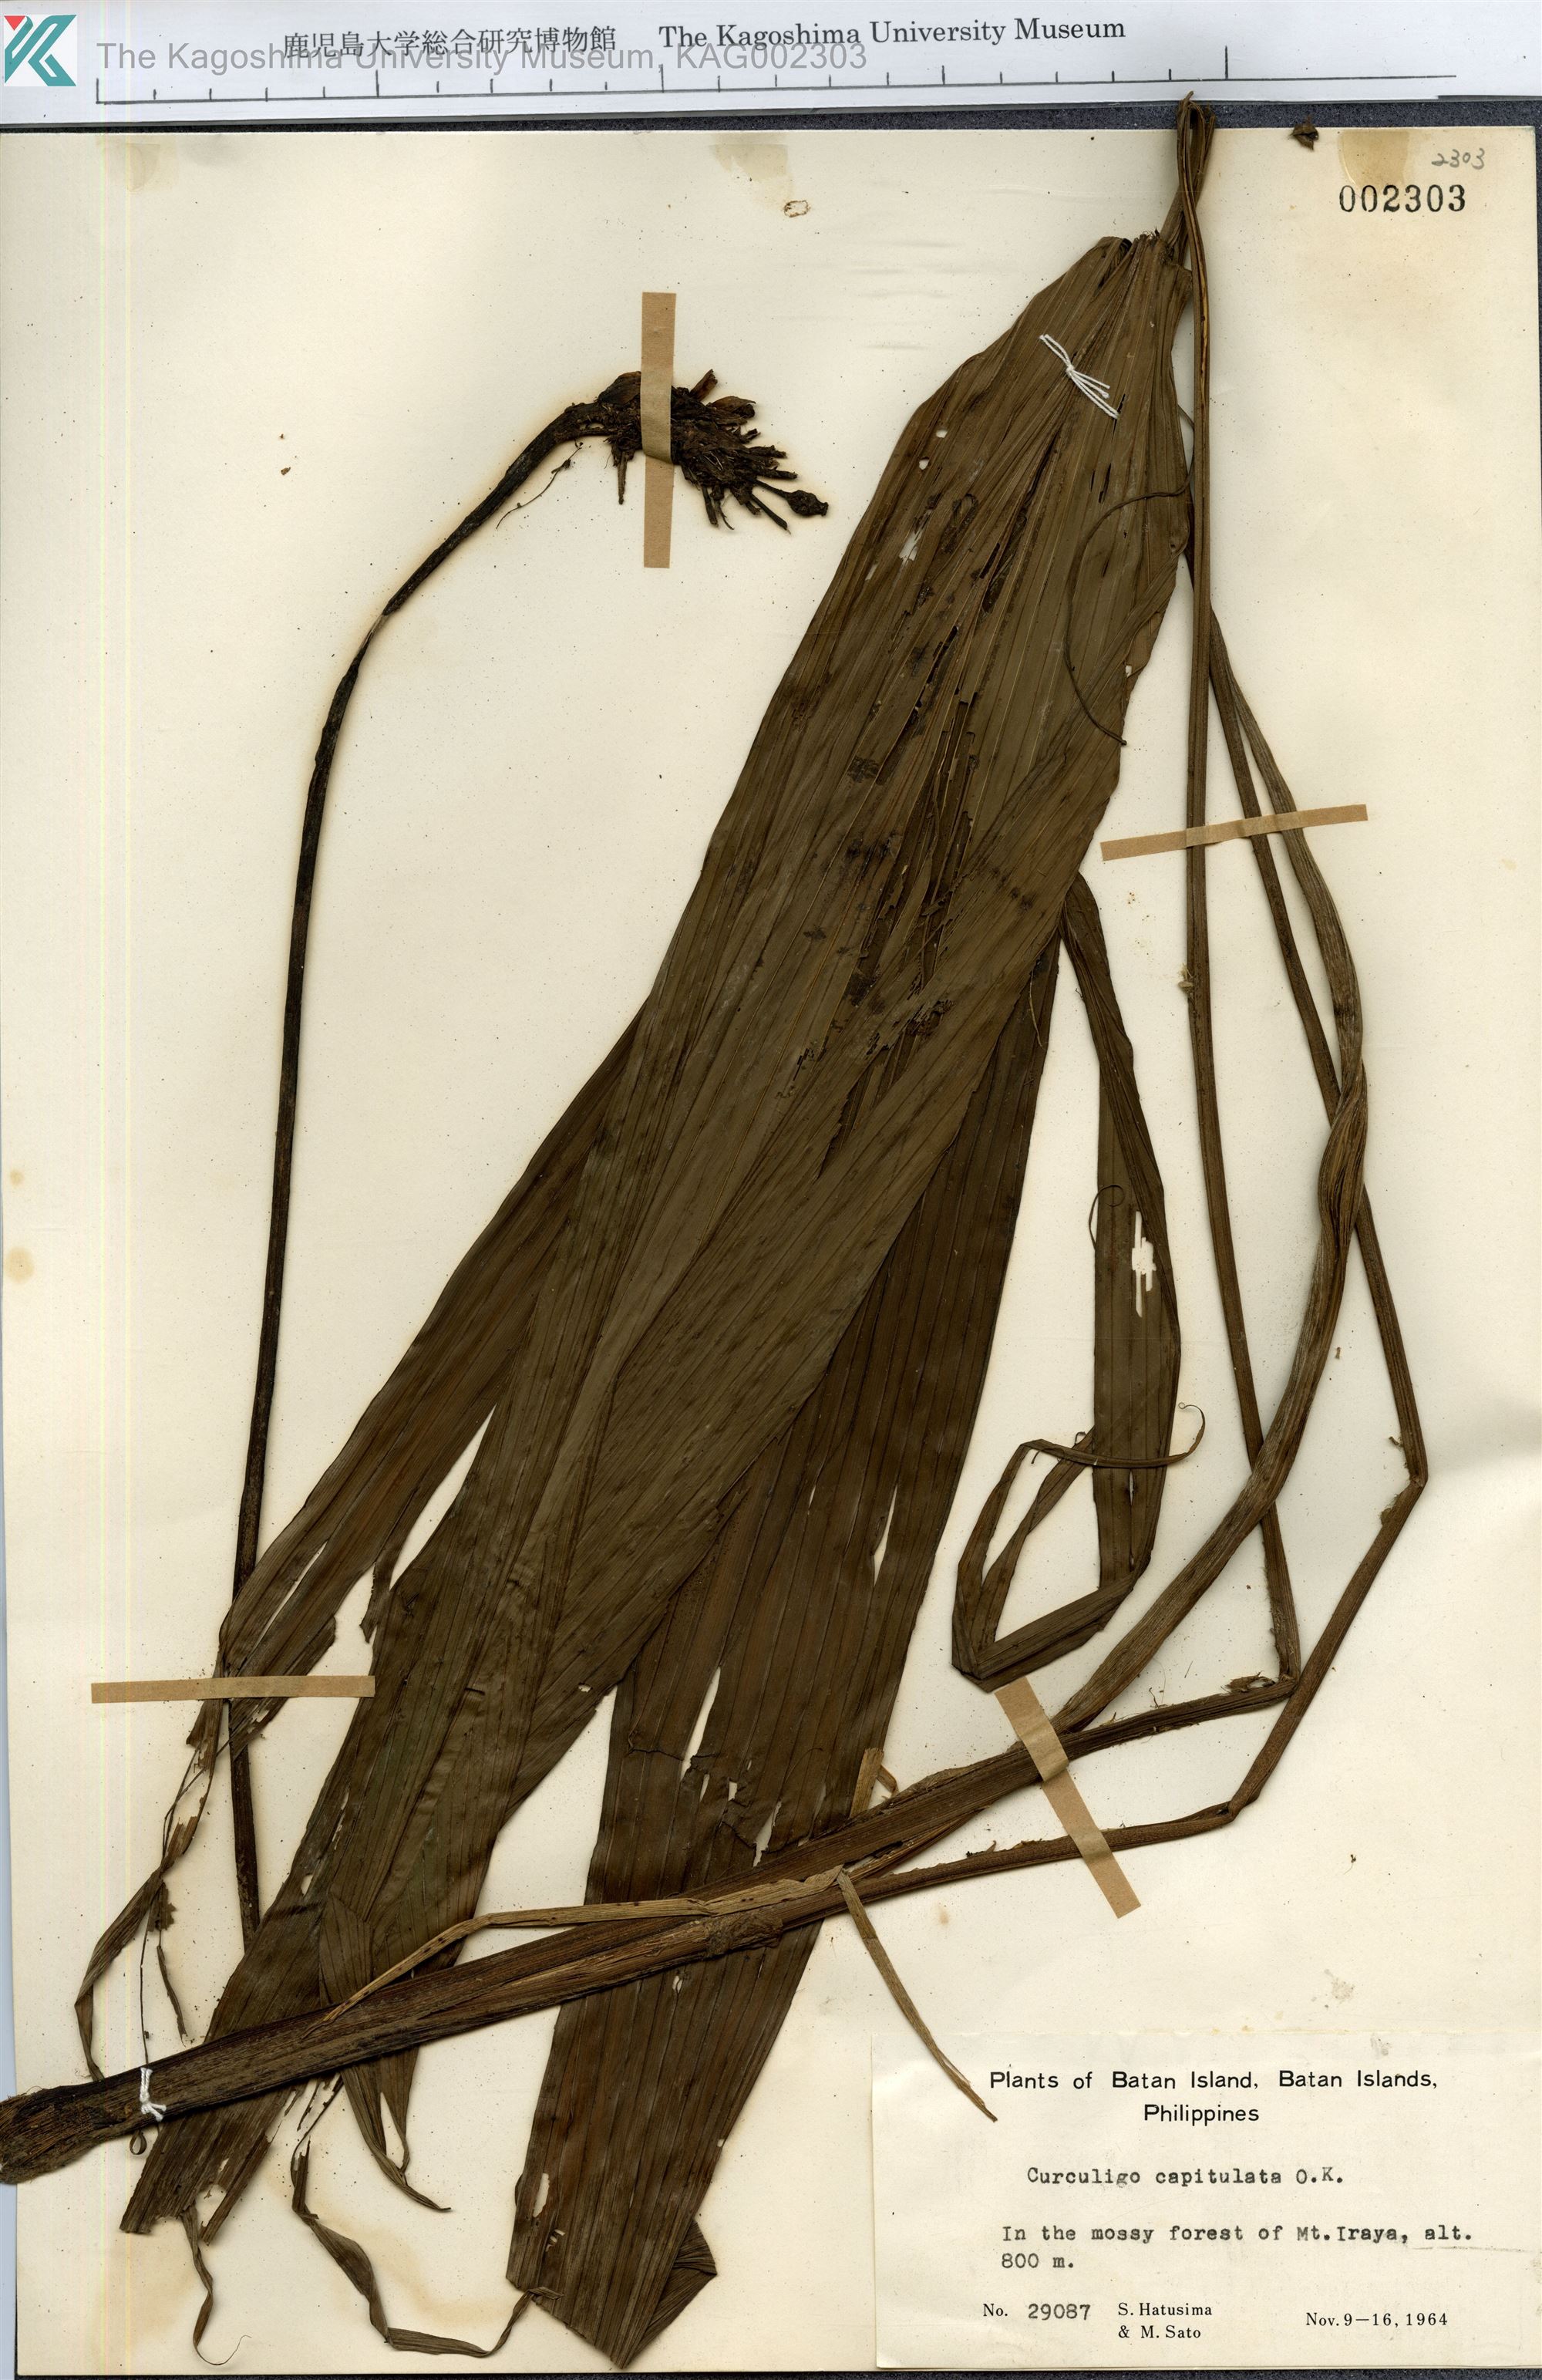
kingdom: Plantae
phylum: Tracheophyta
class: Liliopsida
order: Asparagales
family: Hypoxidaceae
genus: Curculigo
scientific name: Curculigo capitulata
